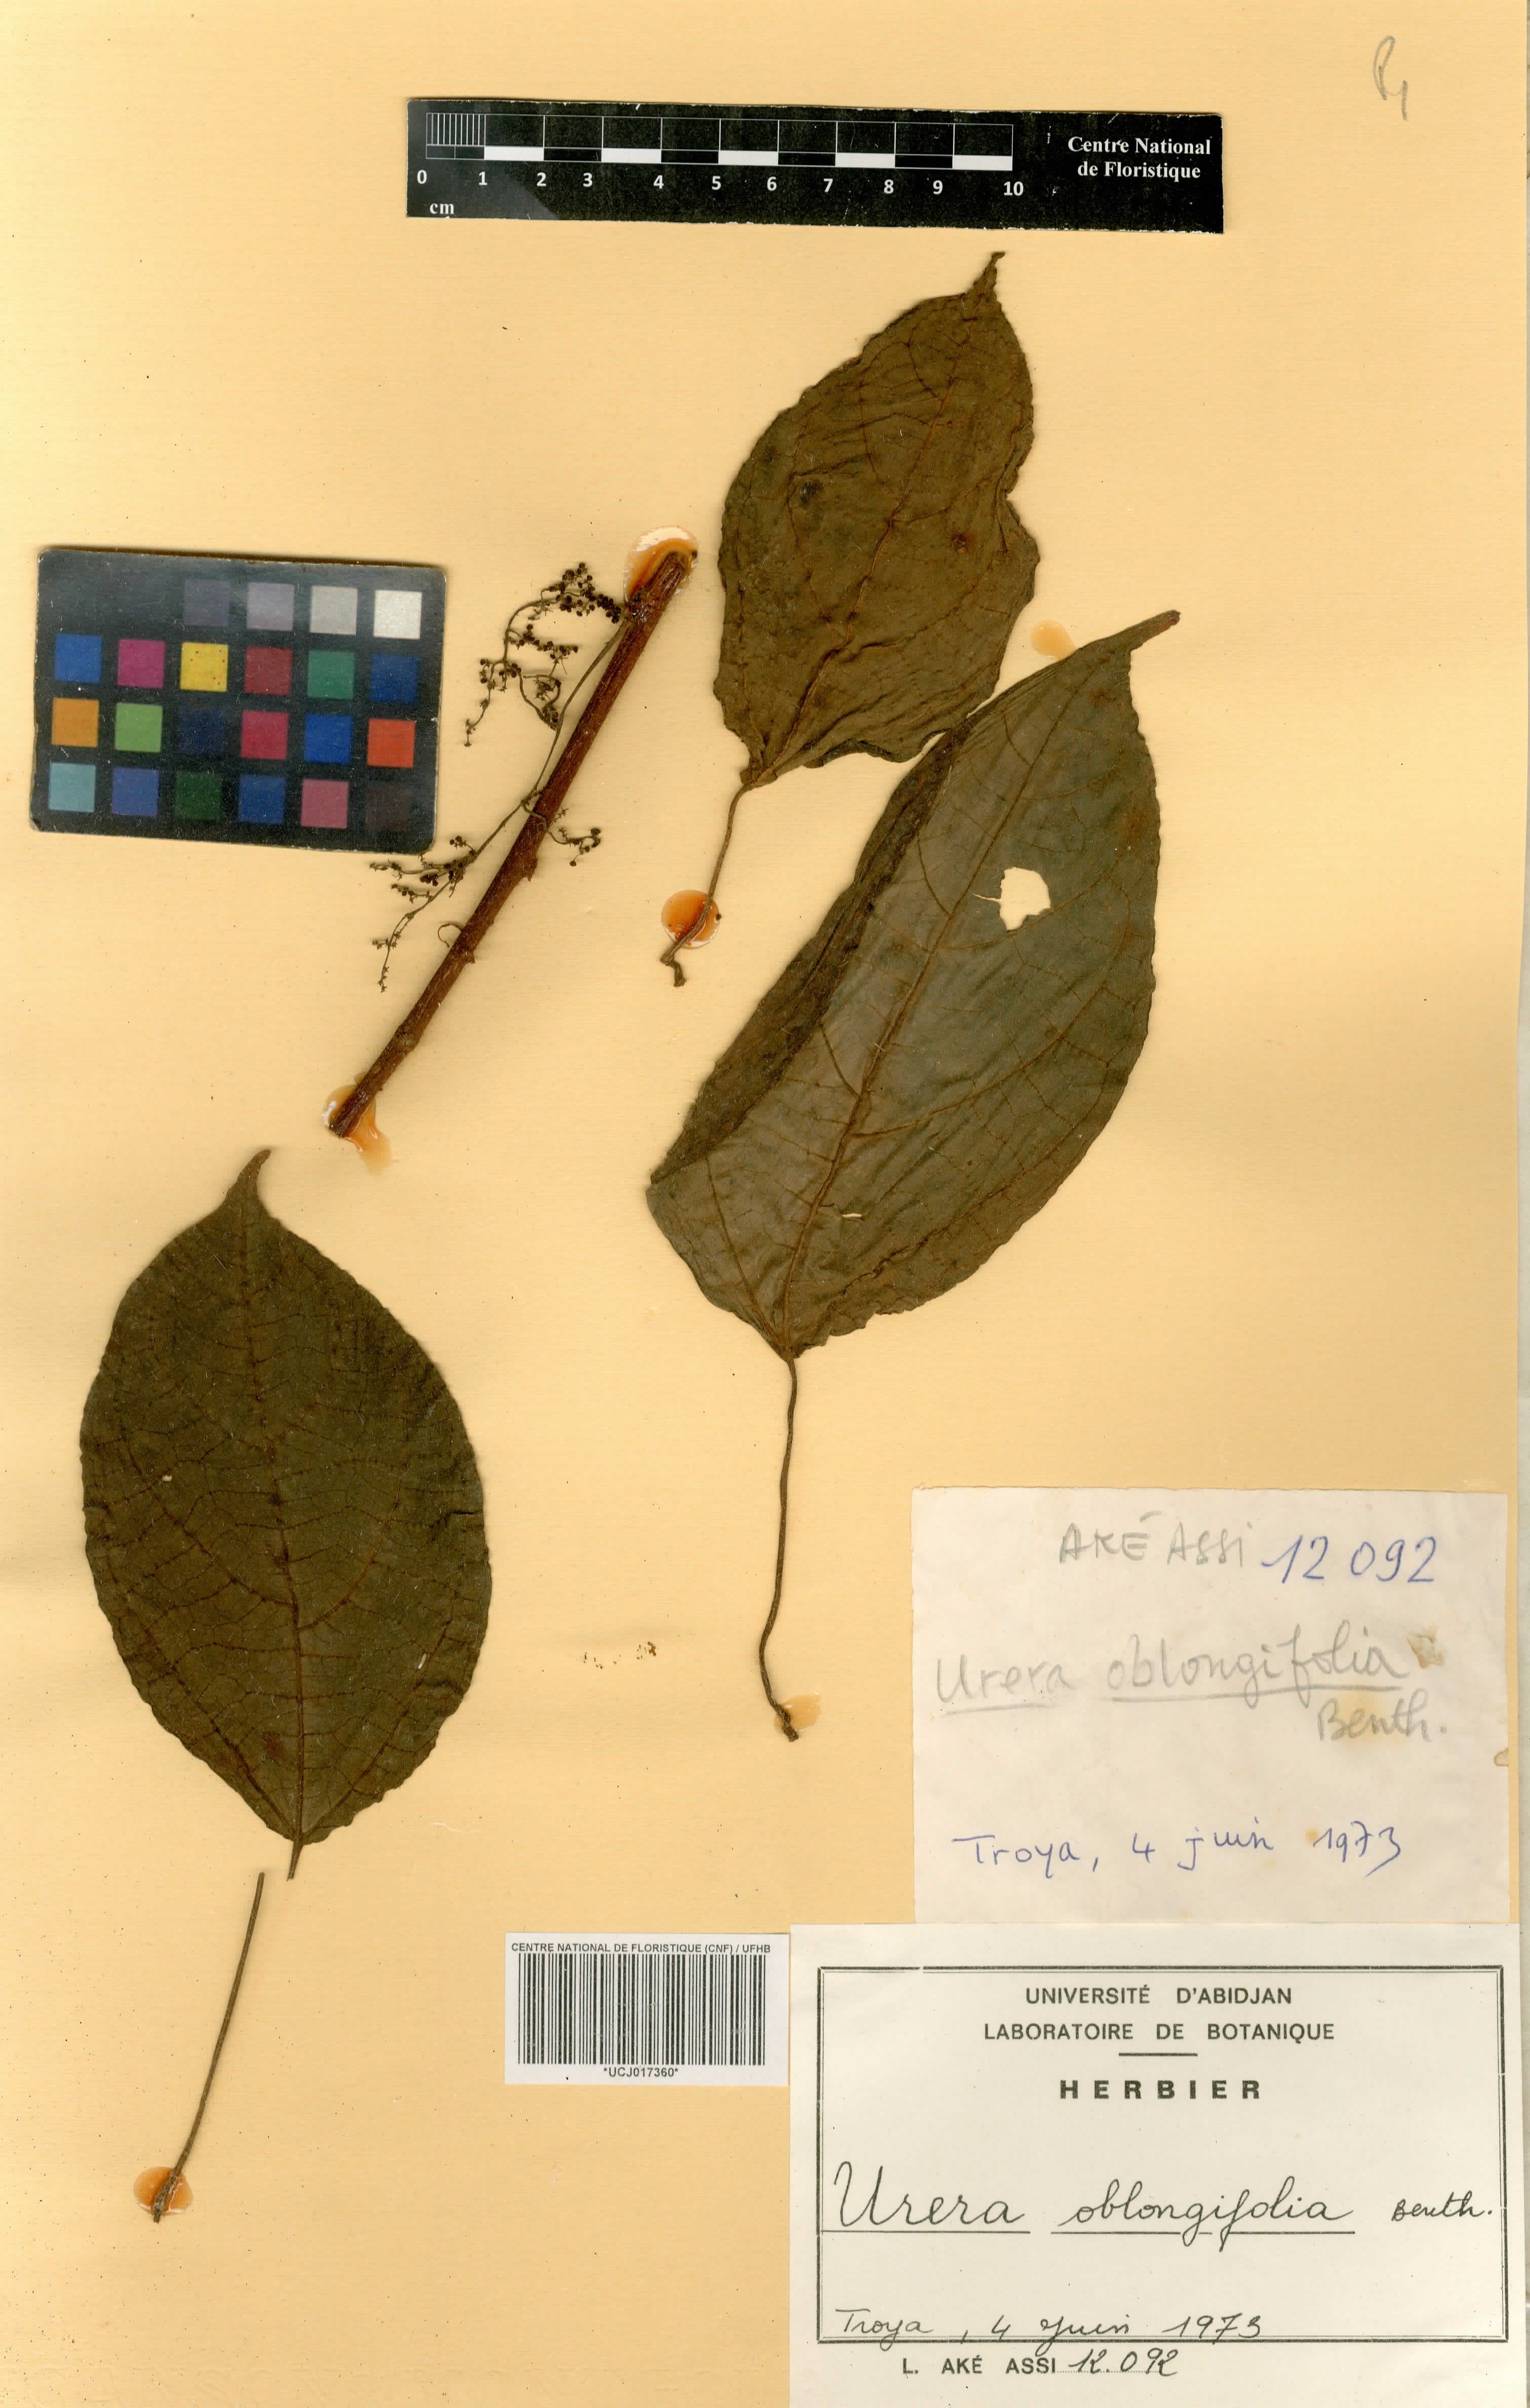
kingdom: Plantae
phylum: Tracheophyta
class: Magnoliopsida
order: Rosales
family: Urticaceae
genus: Scepocarpus
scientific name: Scepocarpus oblongifolius
